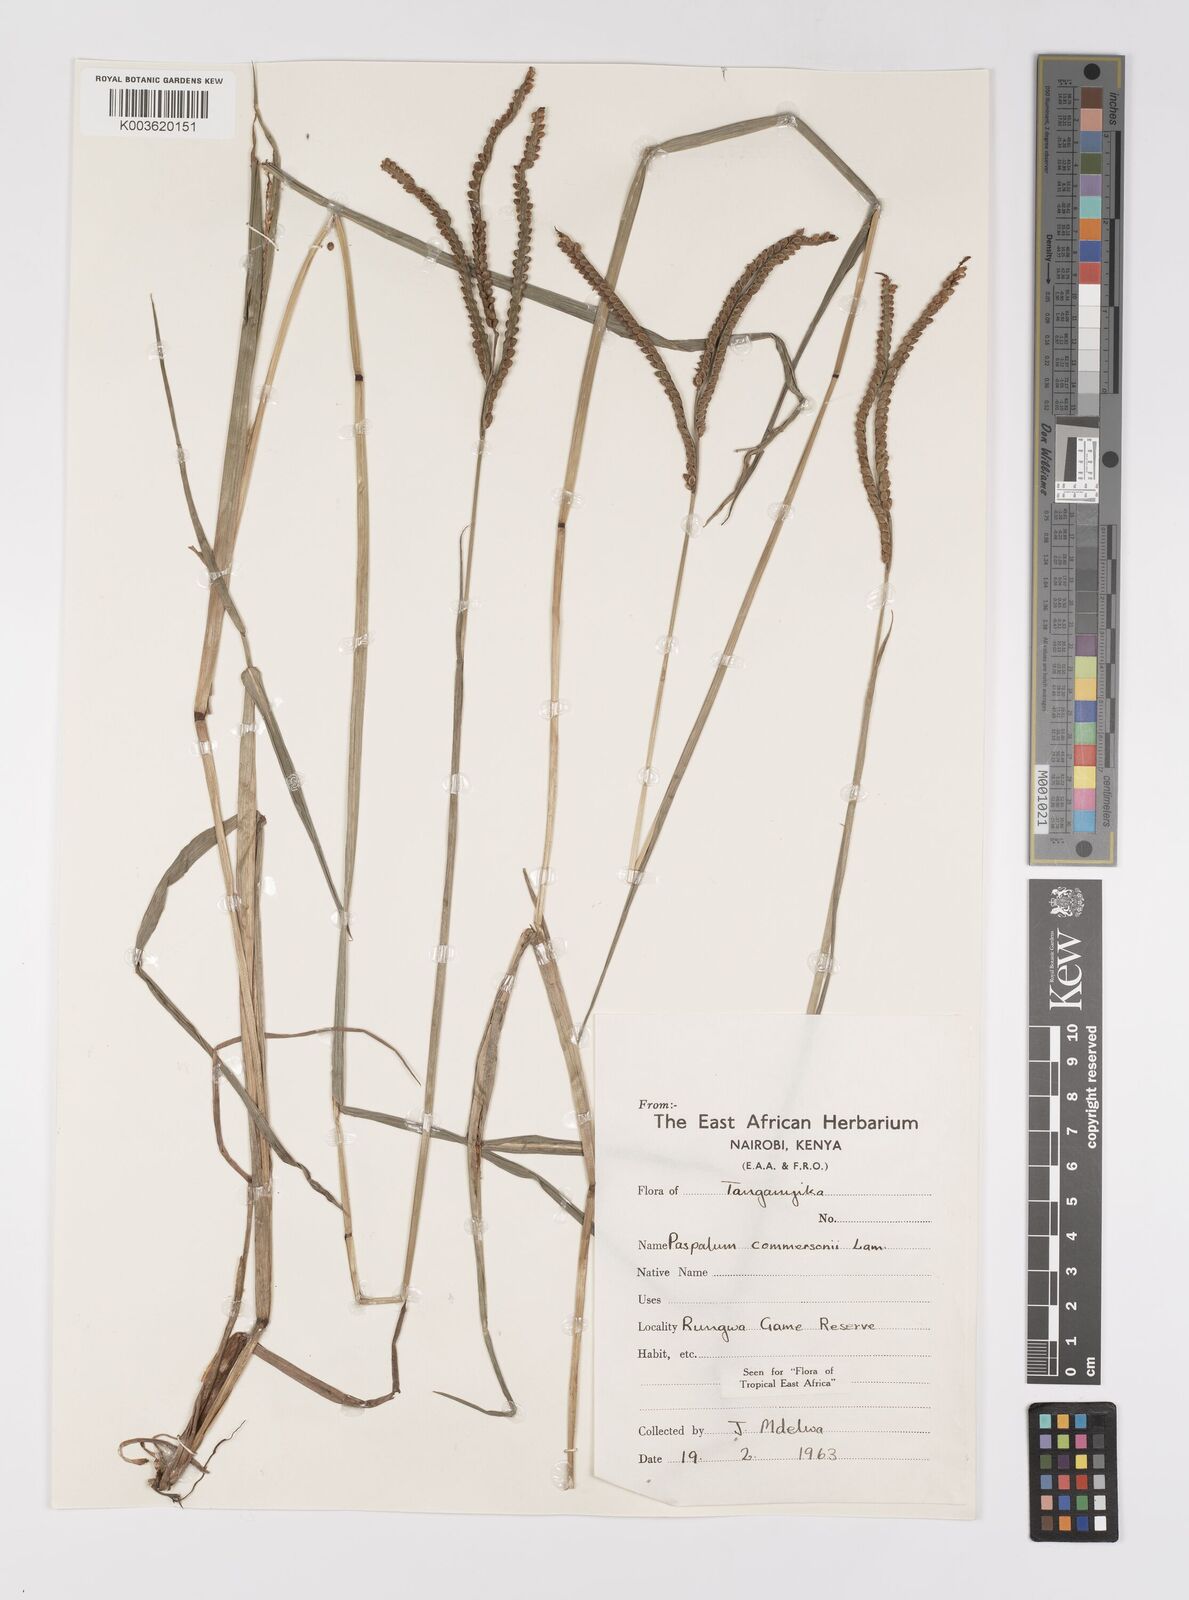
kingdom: Plantae
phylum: Tracheophyta
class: Liliopsida
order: Poales
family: Poaceae
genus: Paspalum
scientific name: Paspalum scrobiculatum
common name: Kodo millet
